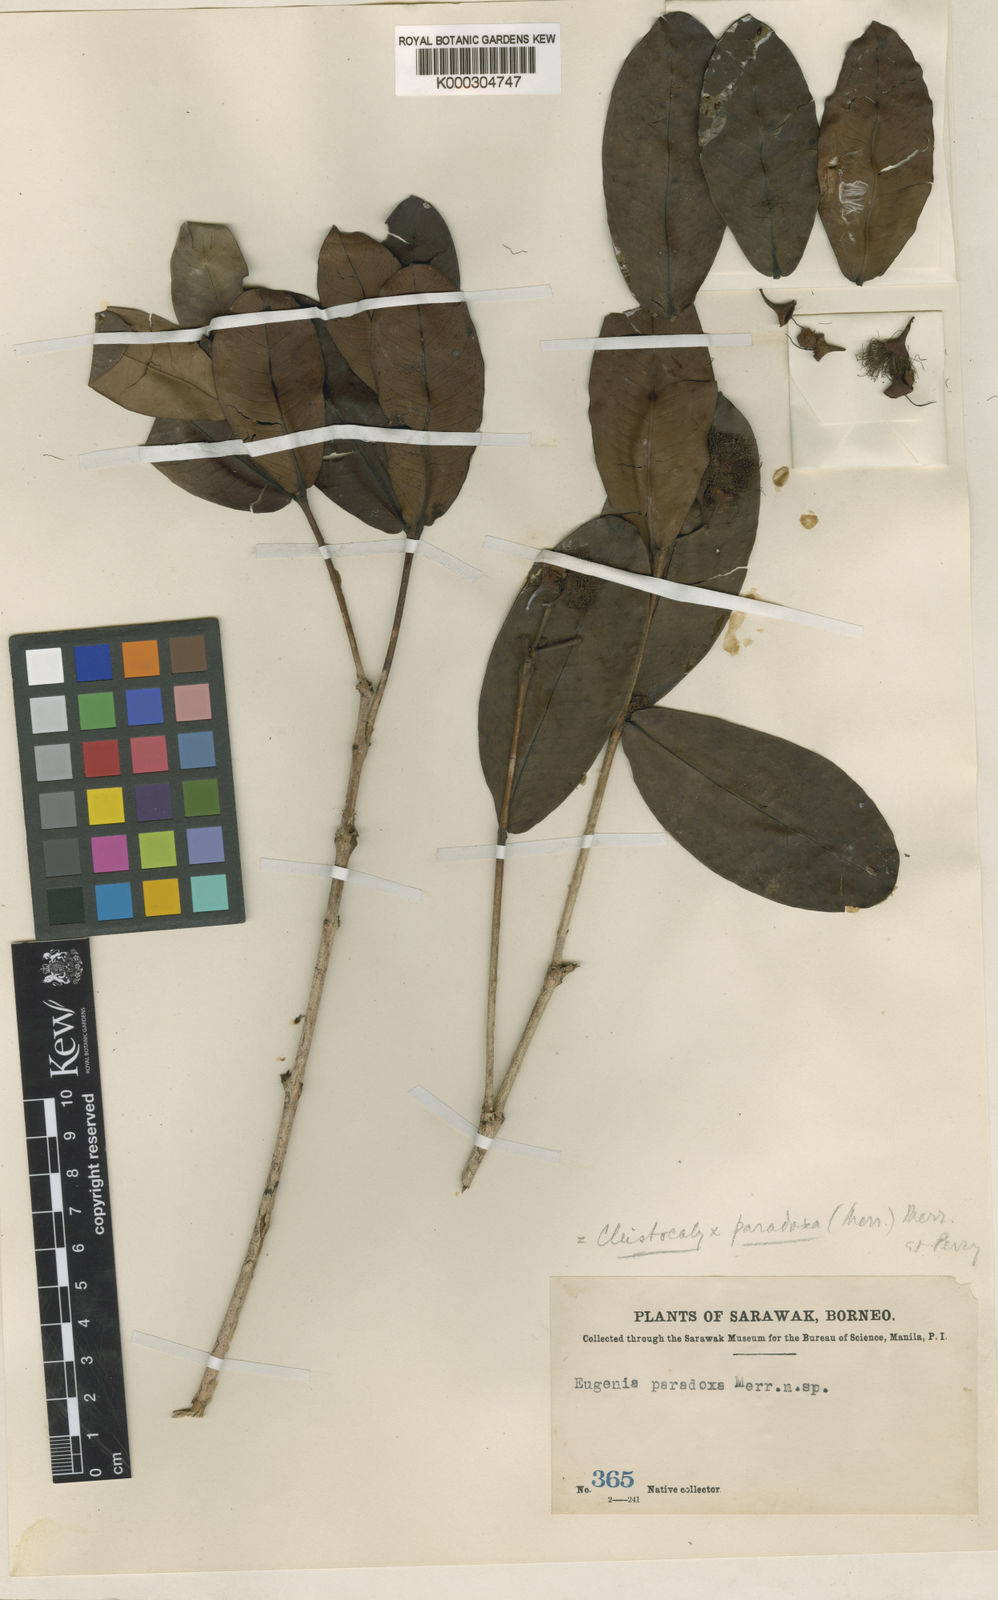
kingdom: Plantae
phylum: Tracheophyta
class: Magnoliopsida
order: Myrtales
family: Myrtaceae
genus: Syzygium
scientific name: Syzygium paradoxum
